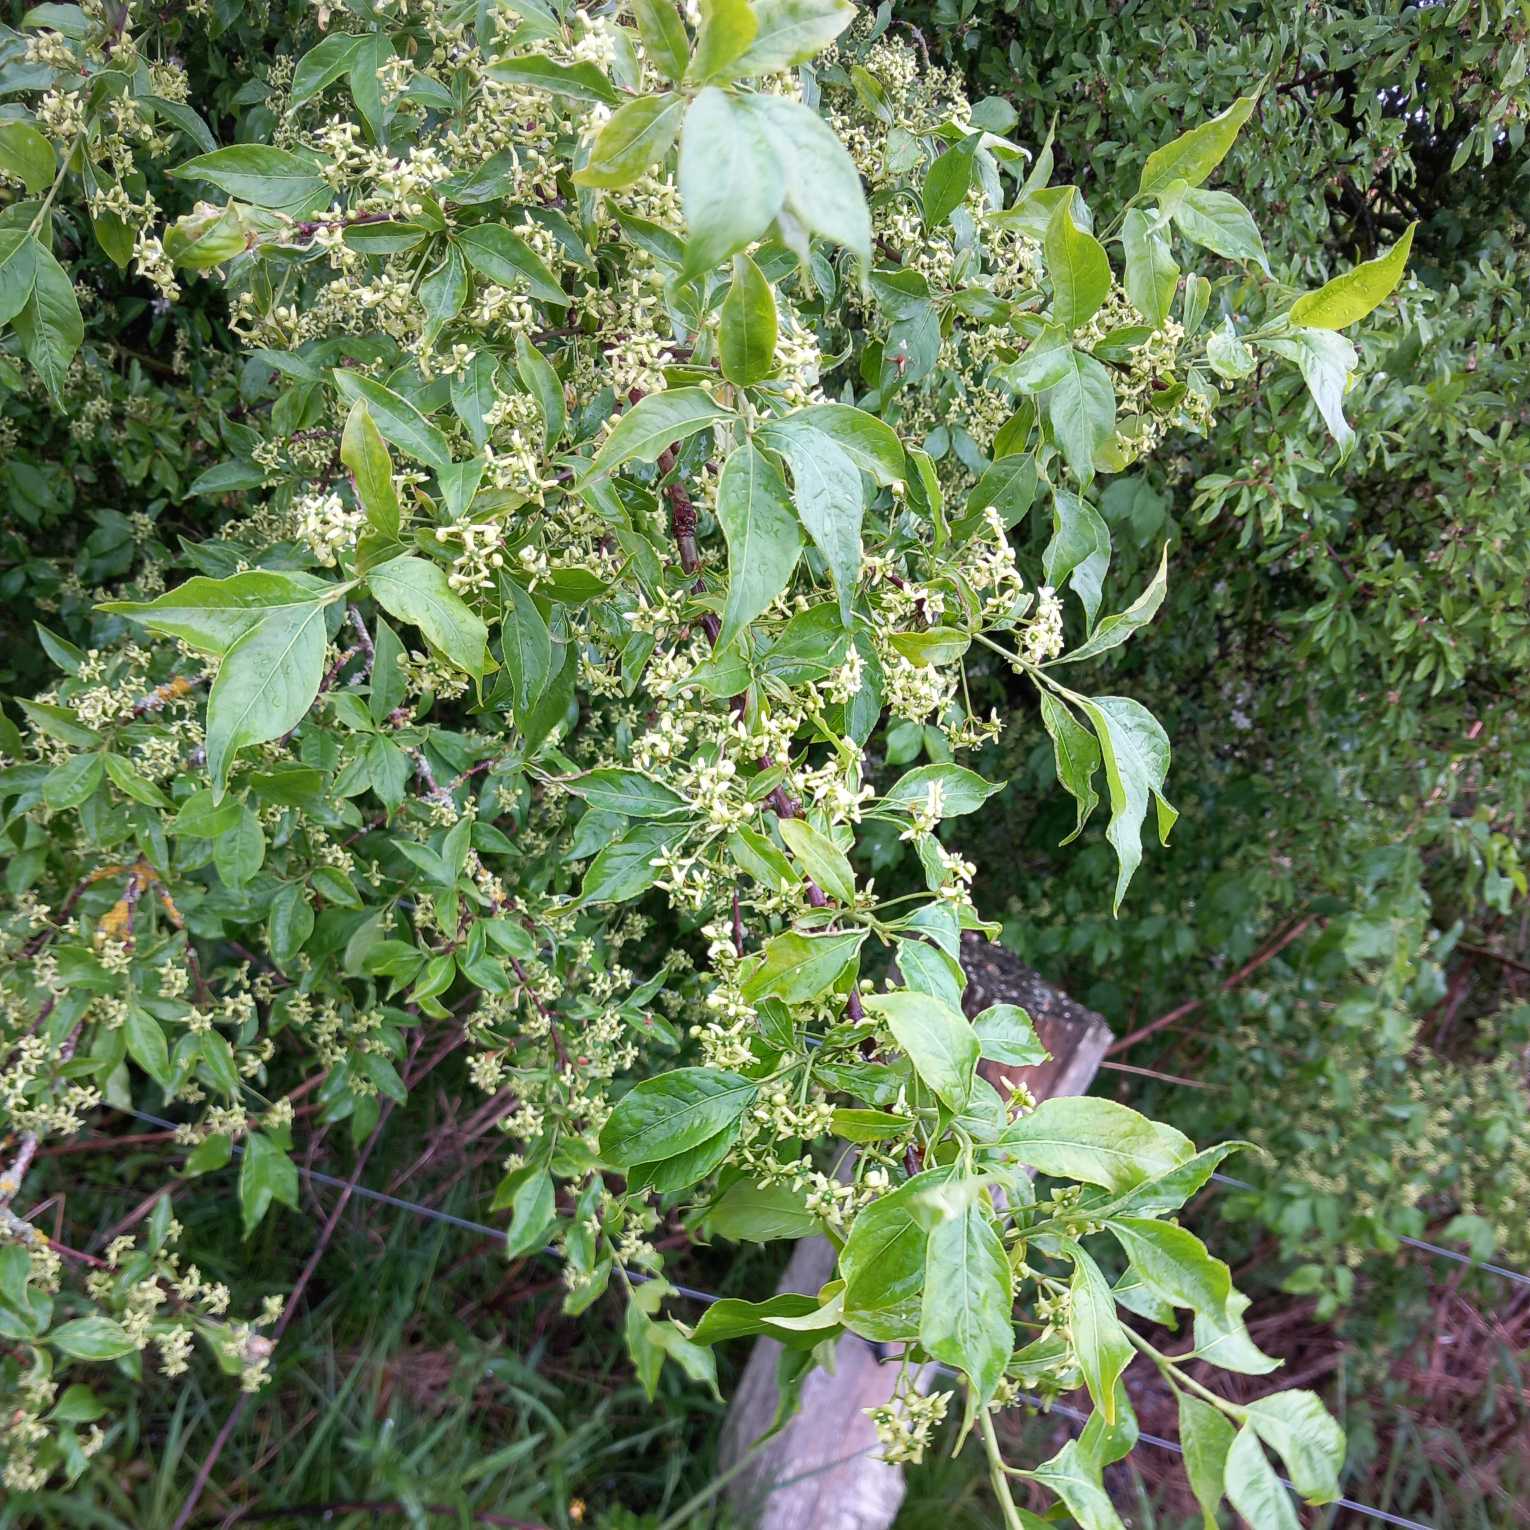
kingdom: Plantae
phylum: Tracheophyta
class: Magnoliopsida
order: Celastrales
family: Celastraceae
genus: Euonymus
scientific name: Euonymus europaeus
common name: Benved
